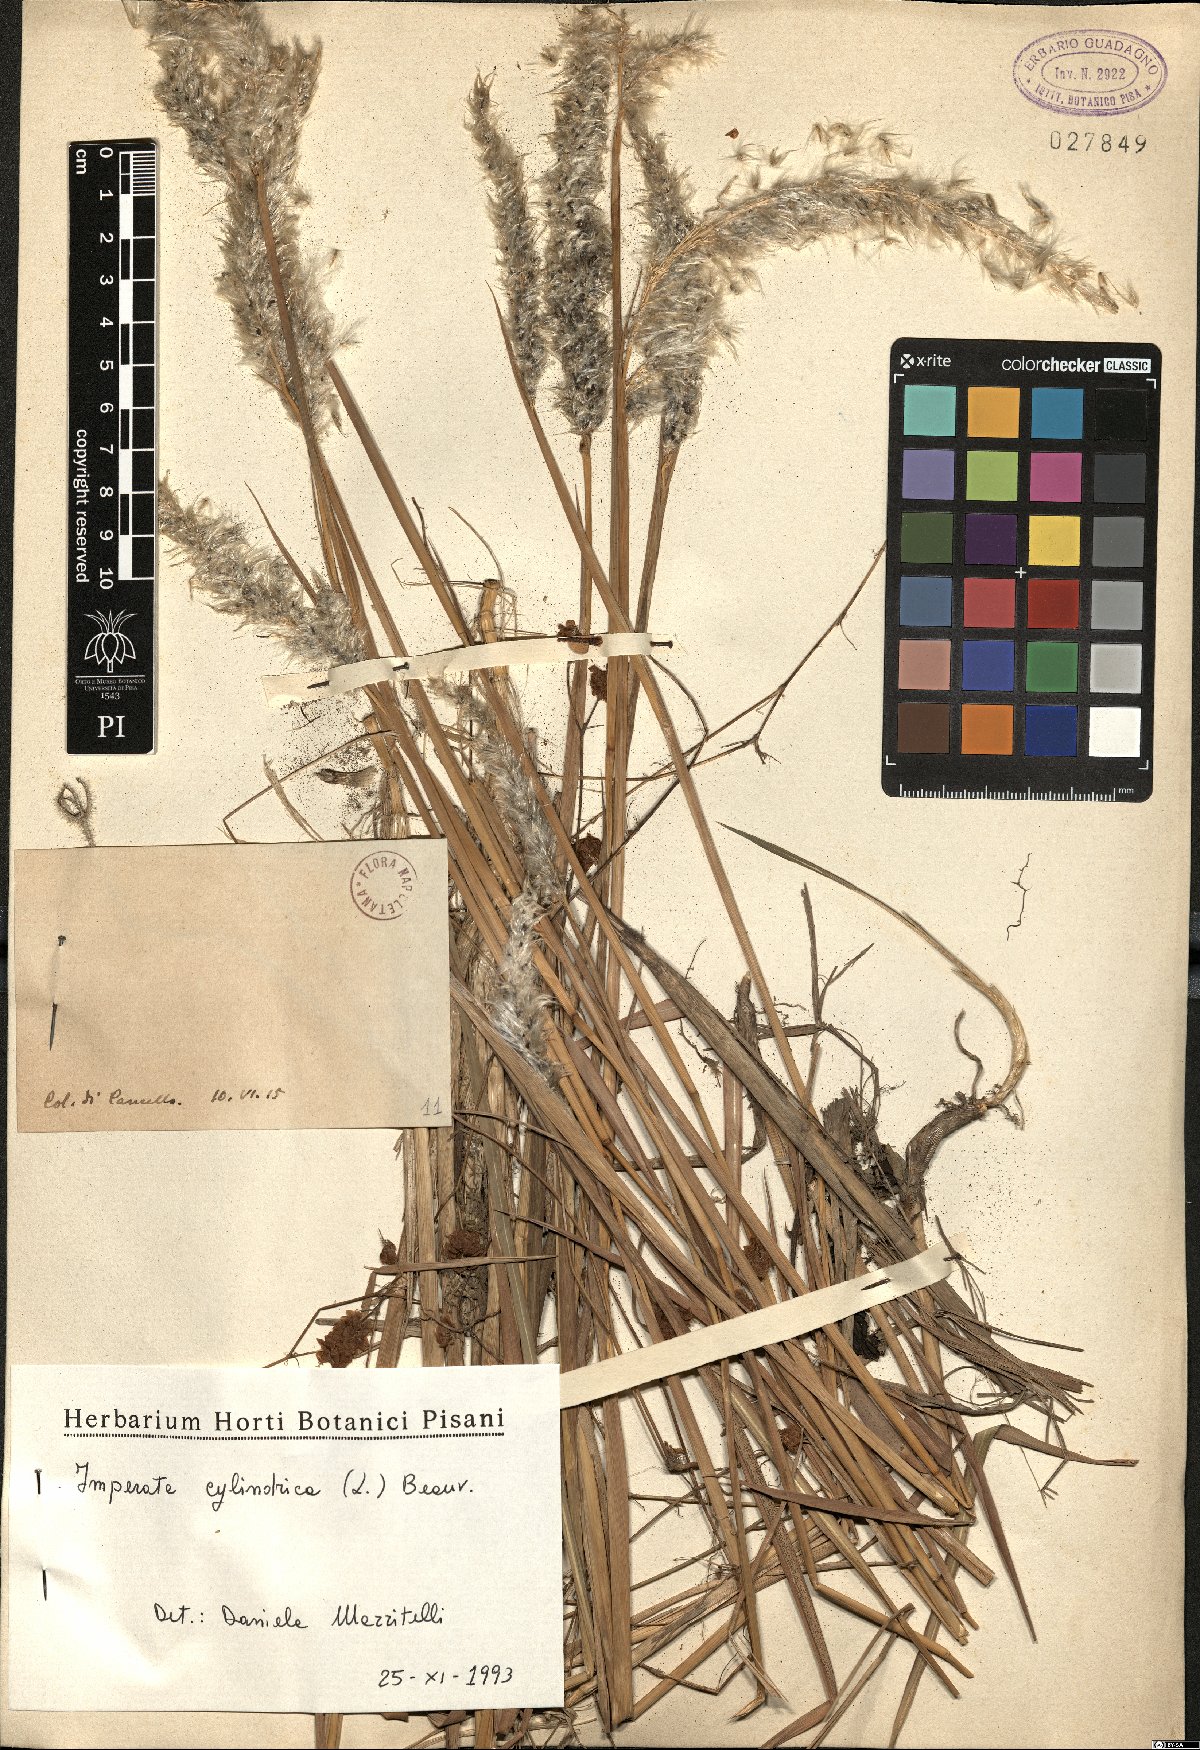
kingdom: Plantae
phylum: Tracheophyta
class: Liliopsida
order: Poales
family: Poaceae
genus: Imperata
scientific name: Imperata cylindrica
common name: Cogongrass
